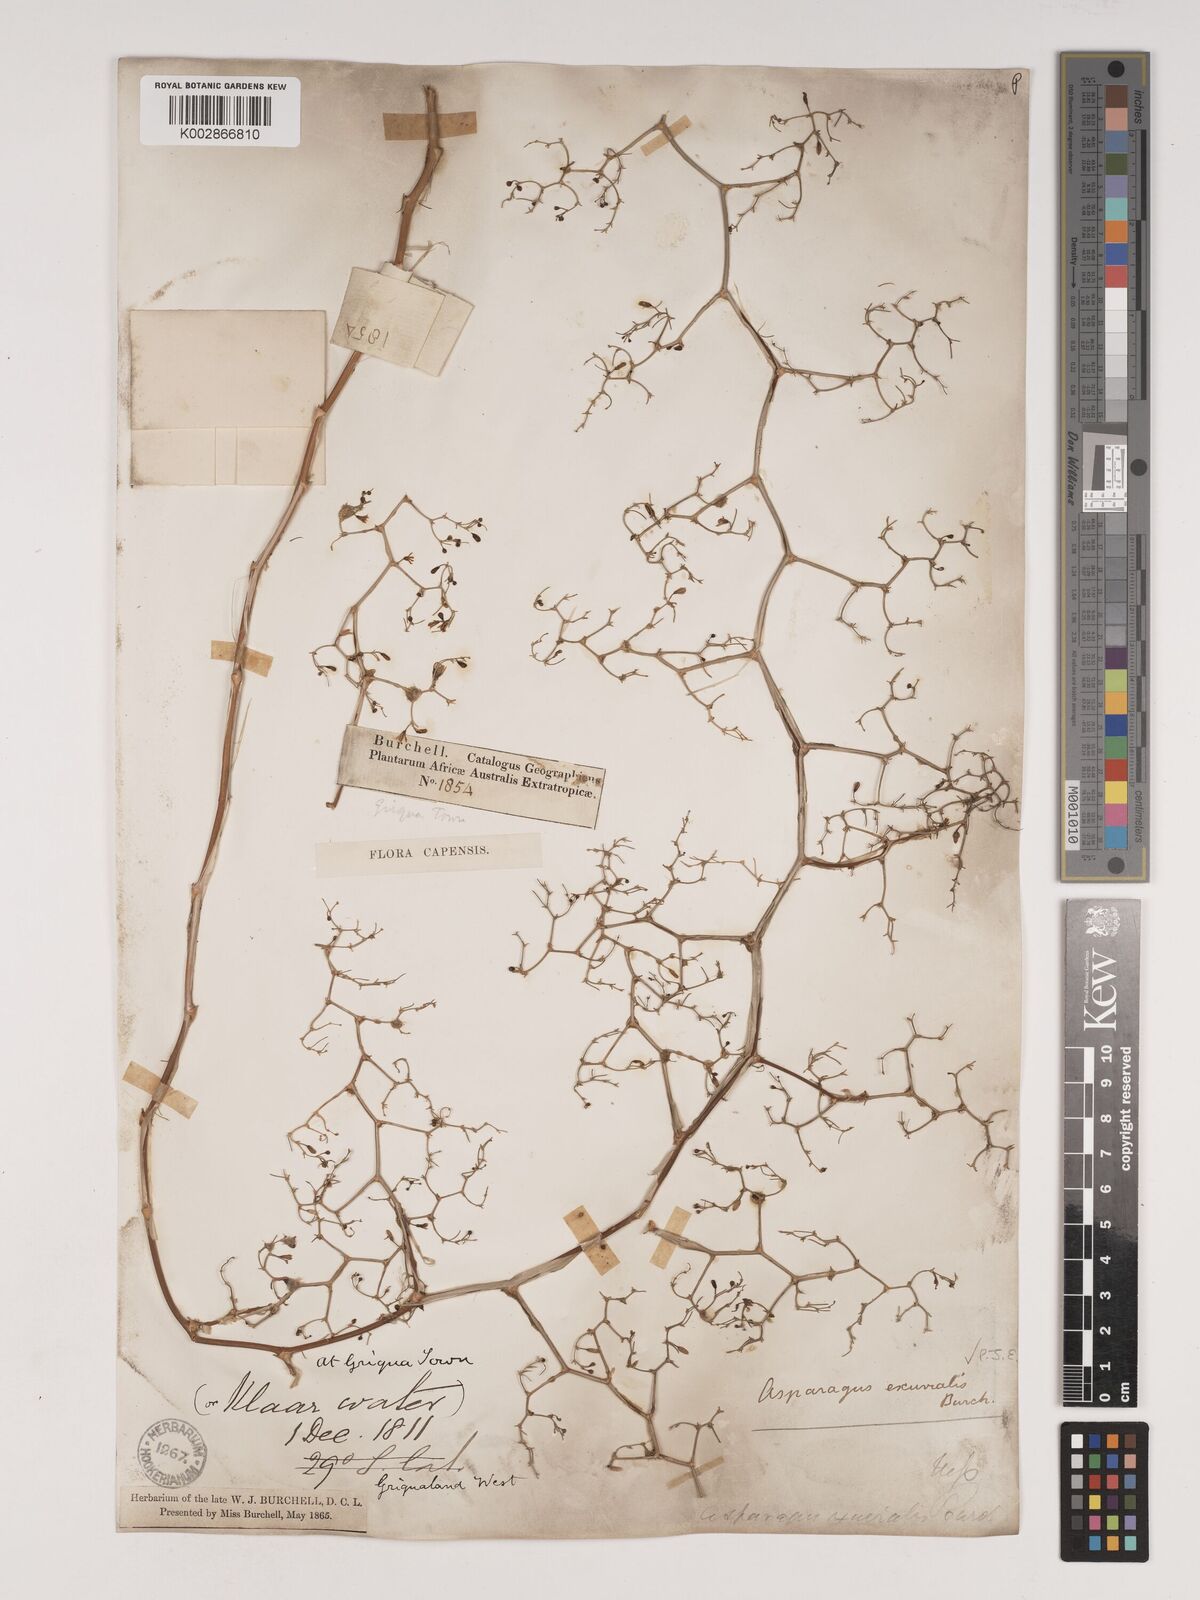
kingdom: Plantae
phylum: Tracheophyta
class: Liliopsida
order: Asparagales
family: Asparagaceae
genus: Asparagus
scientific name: Asparagus exuvialis
